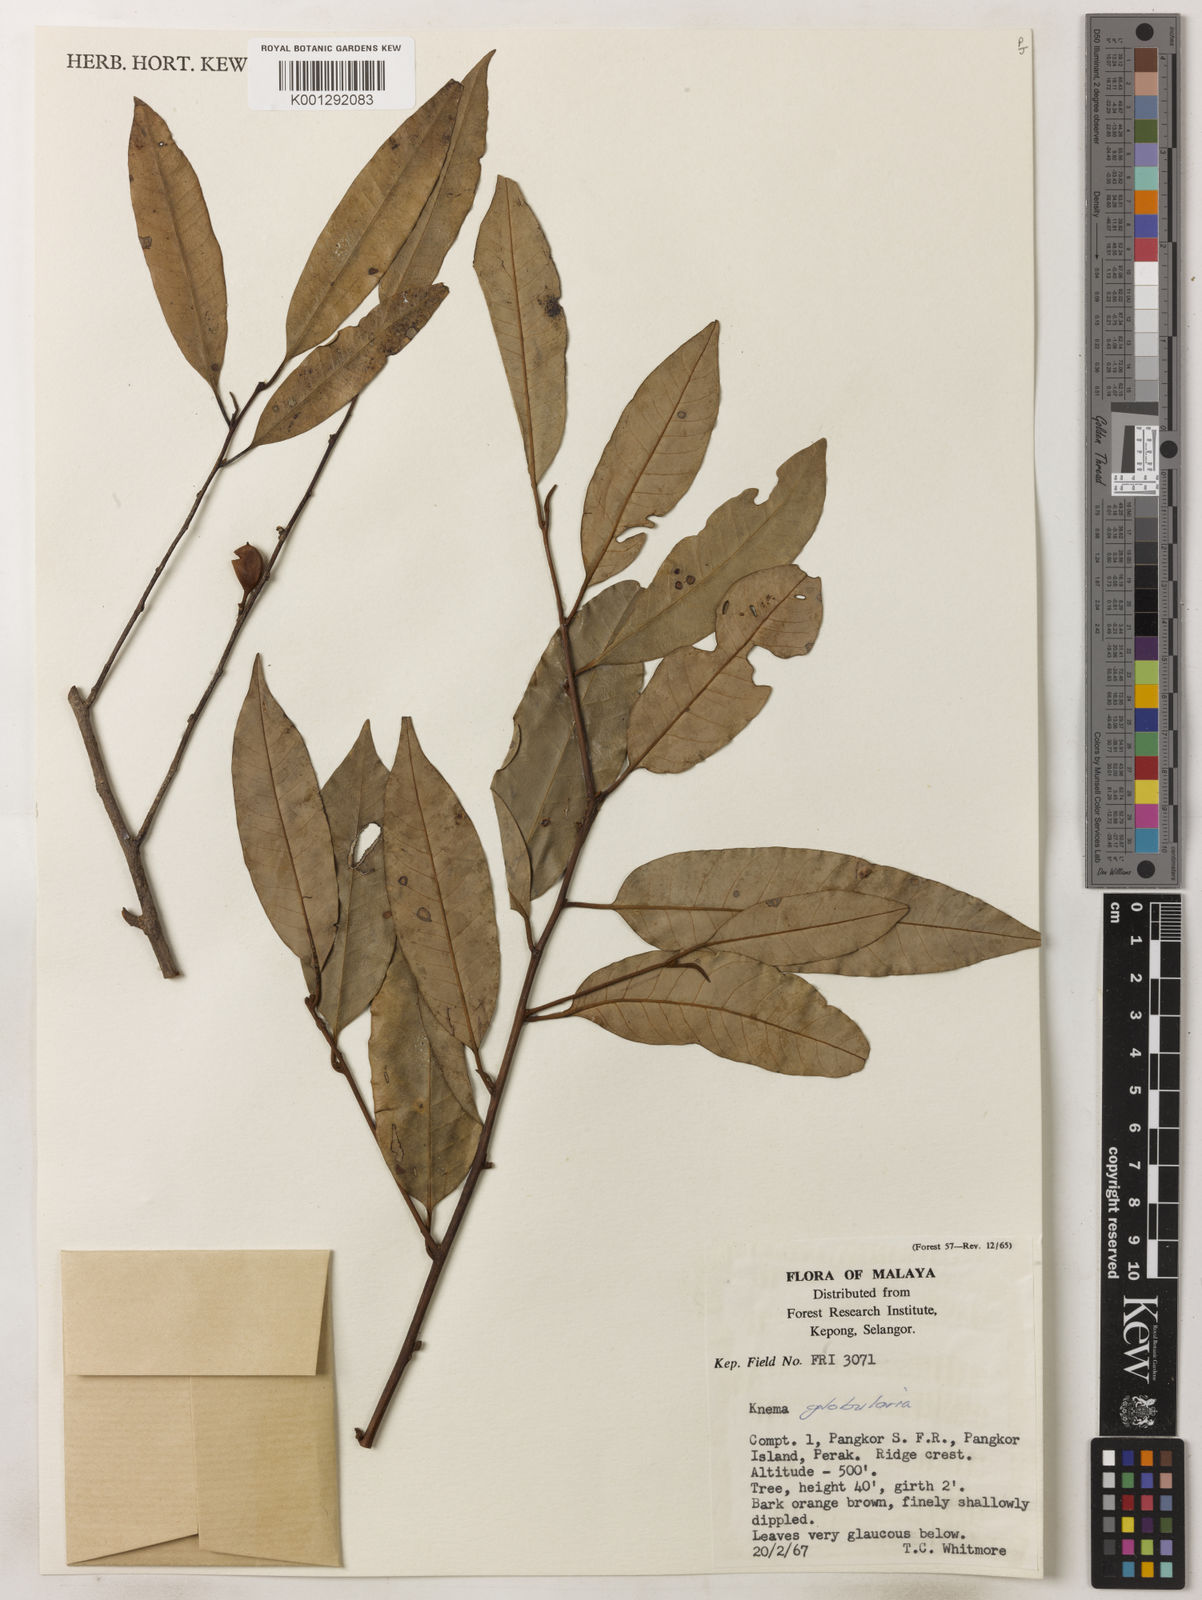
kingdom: Plantae
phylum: Tracheophyta
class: Magnoliopsida
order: Magnoliales
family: Myristicaceae
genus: Knema
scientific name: Knema globularia
